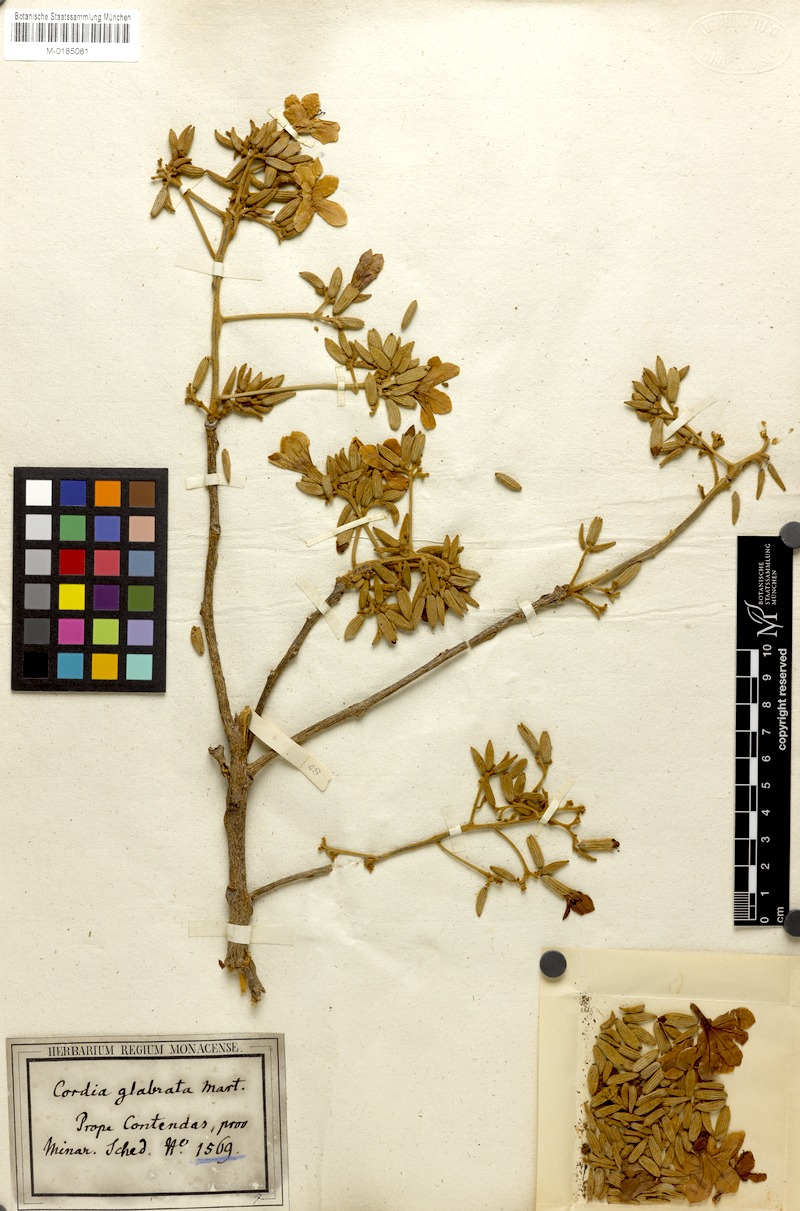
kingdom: Plantae
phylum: Tracheophyta
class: Magnoliopsida
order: Boraginales
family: Cordiaceae
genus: Cordia
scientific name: Cordia glabrata
